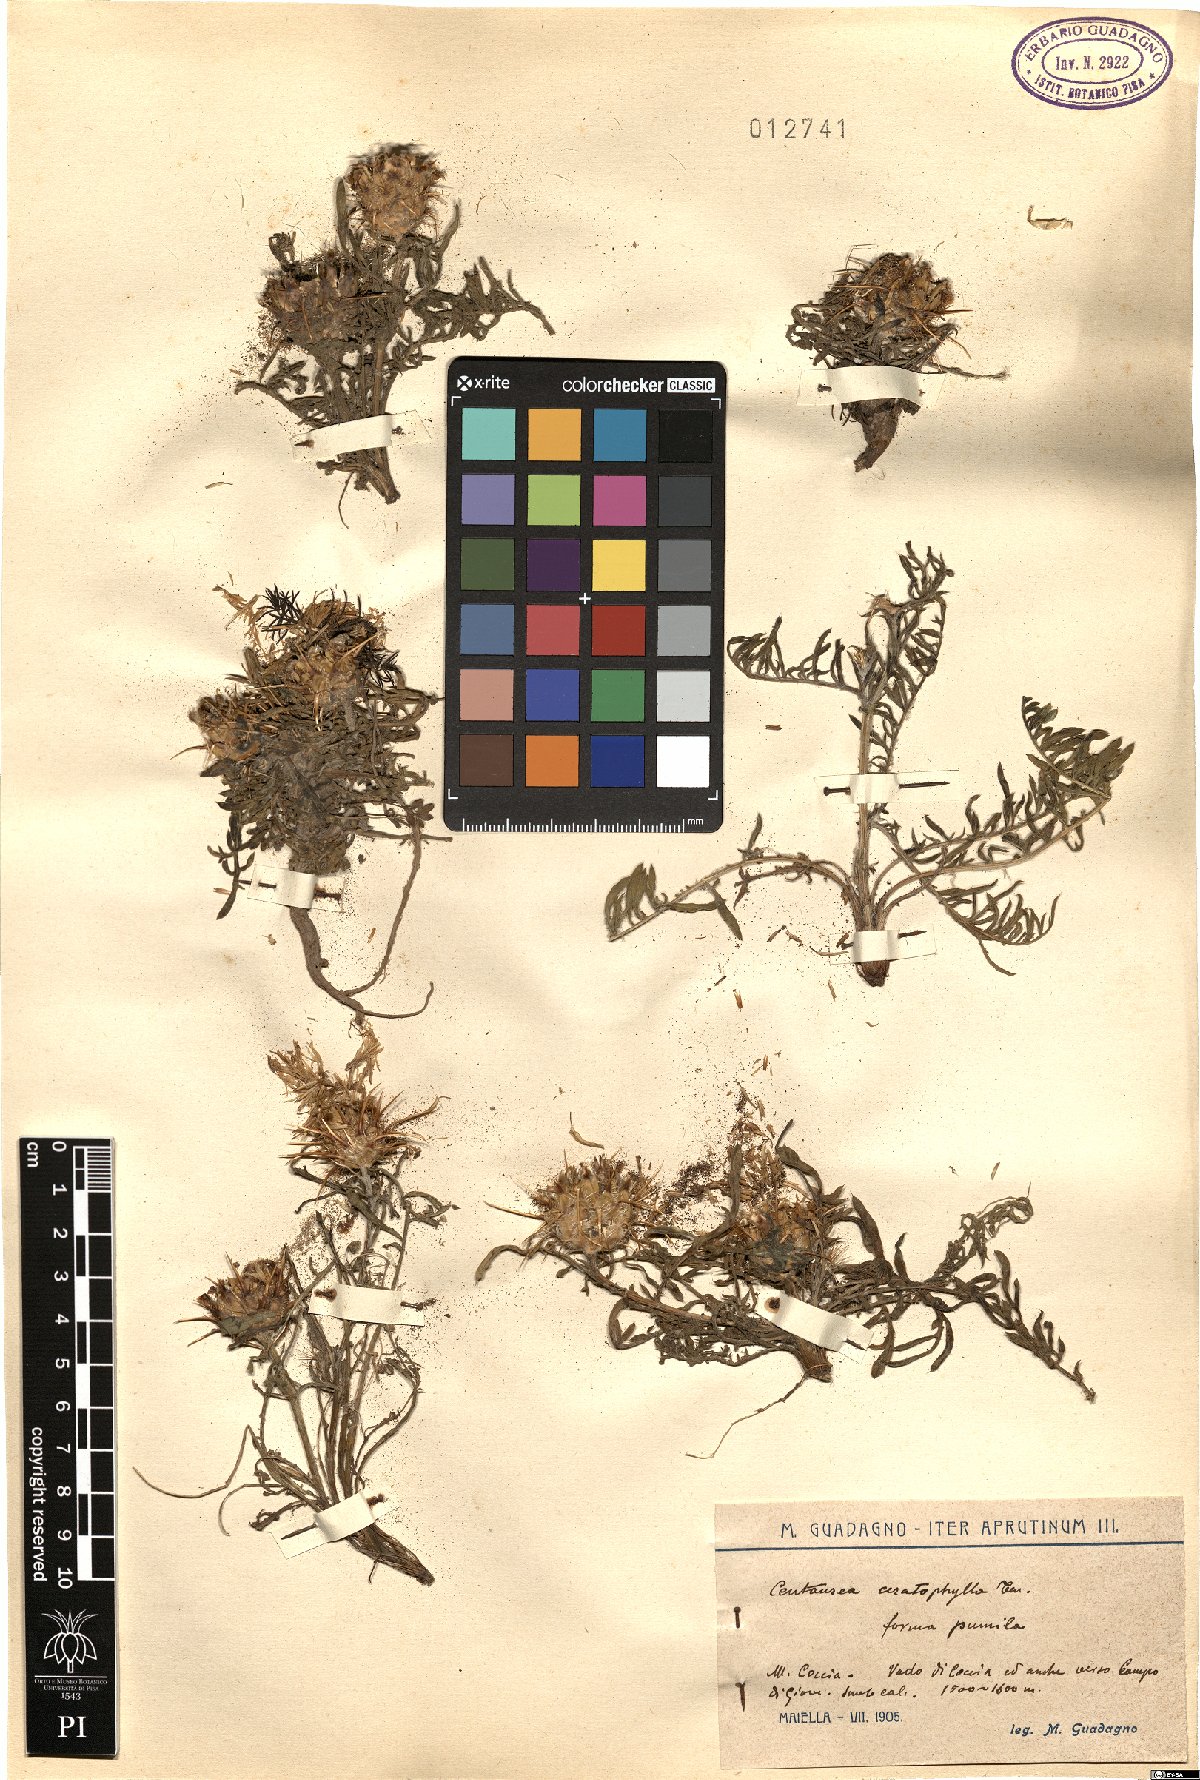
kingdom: Plantae
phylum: Tracheophyta
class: Magnoliopsida
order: Asterales
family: Asteraceae
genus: Centaurea
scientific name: Centaurea ceratophylla
